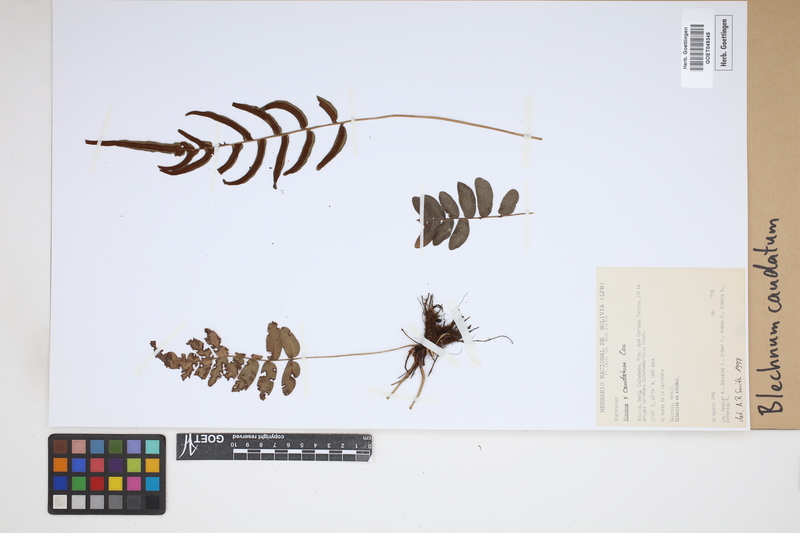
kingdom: Plantae
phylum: Tracheophyta
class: Polypodiopsida
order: Polypodiales
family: Blechnaceae
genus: Blechnum
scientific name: Blechnum caudatum
